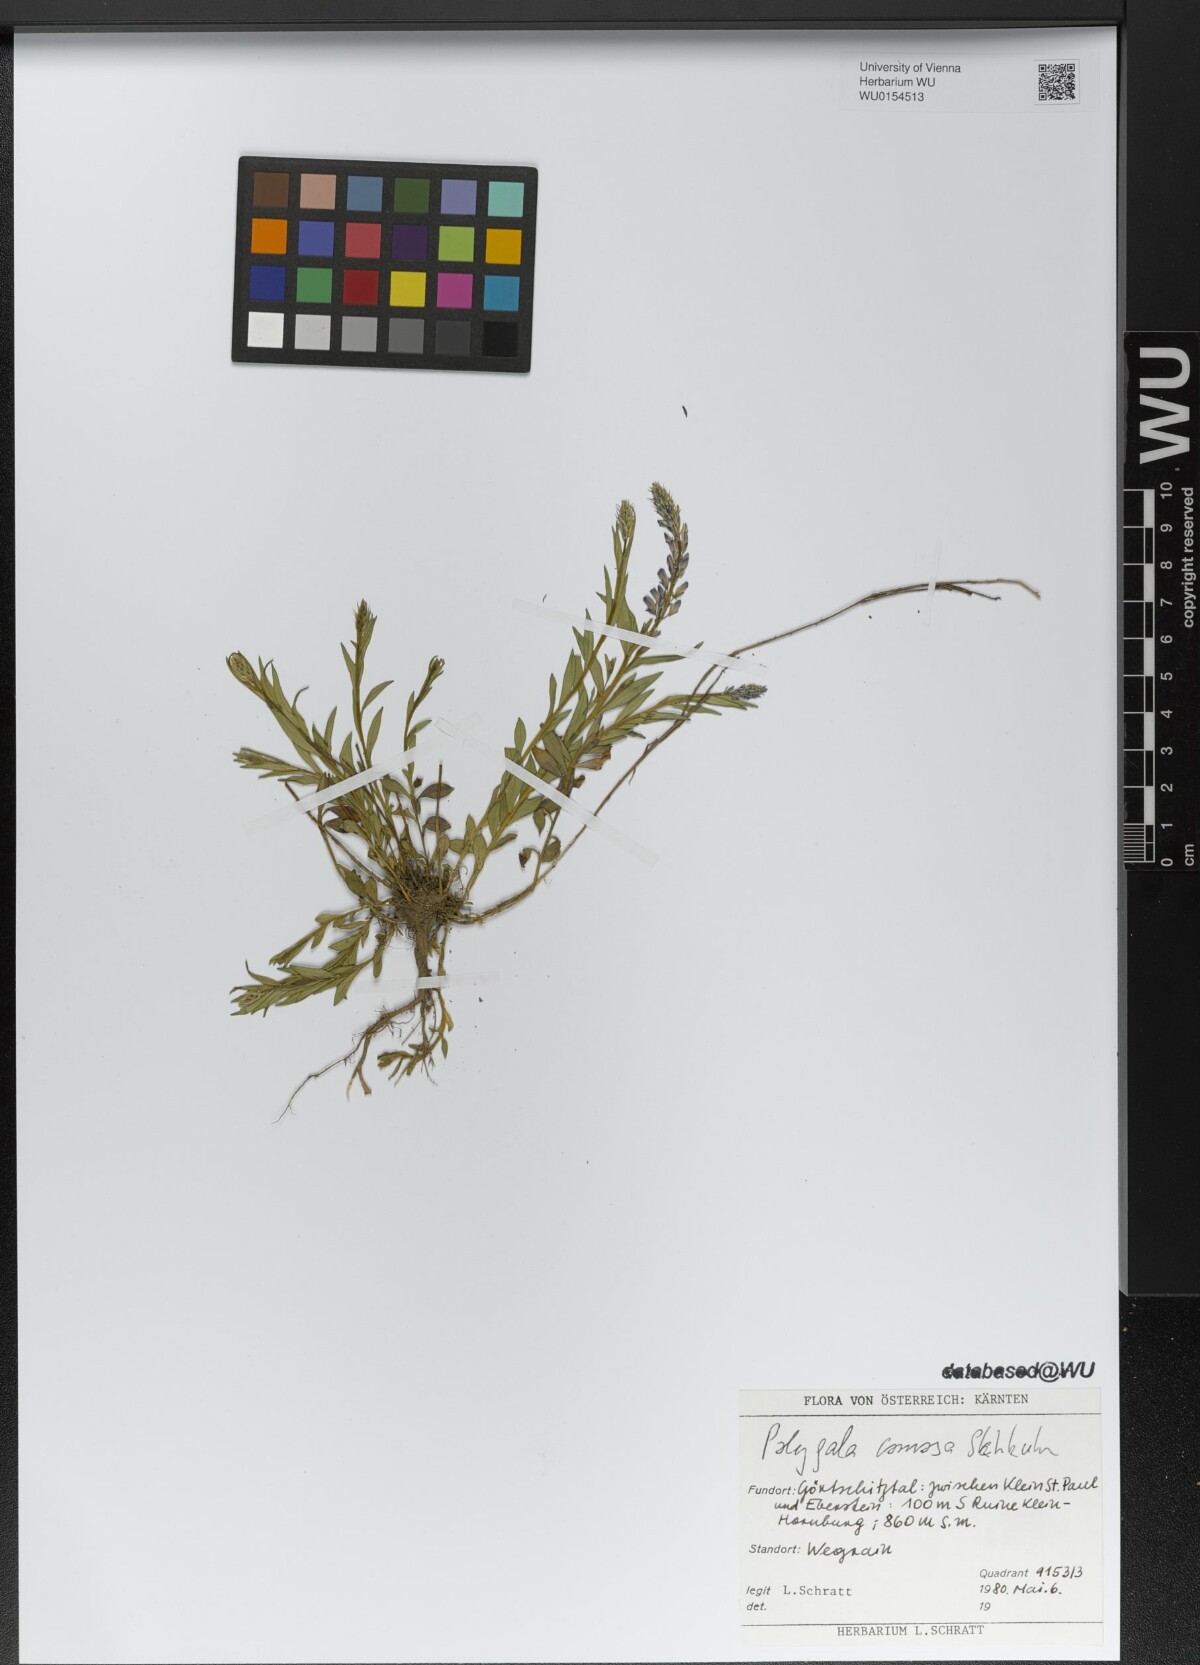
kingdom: Plantae
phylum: Tracheophyta
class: Magnoliopsida
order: Fabales
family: Polygalaceae
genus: Polygala
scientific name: Polygala comosa
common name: Tufted milkwort
